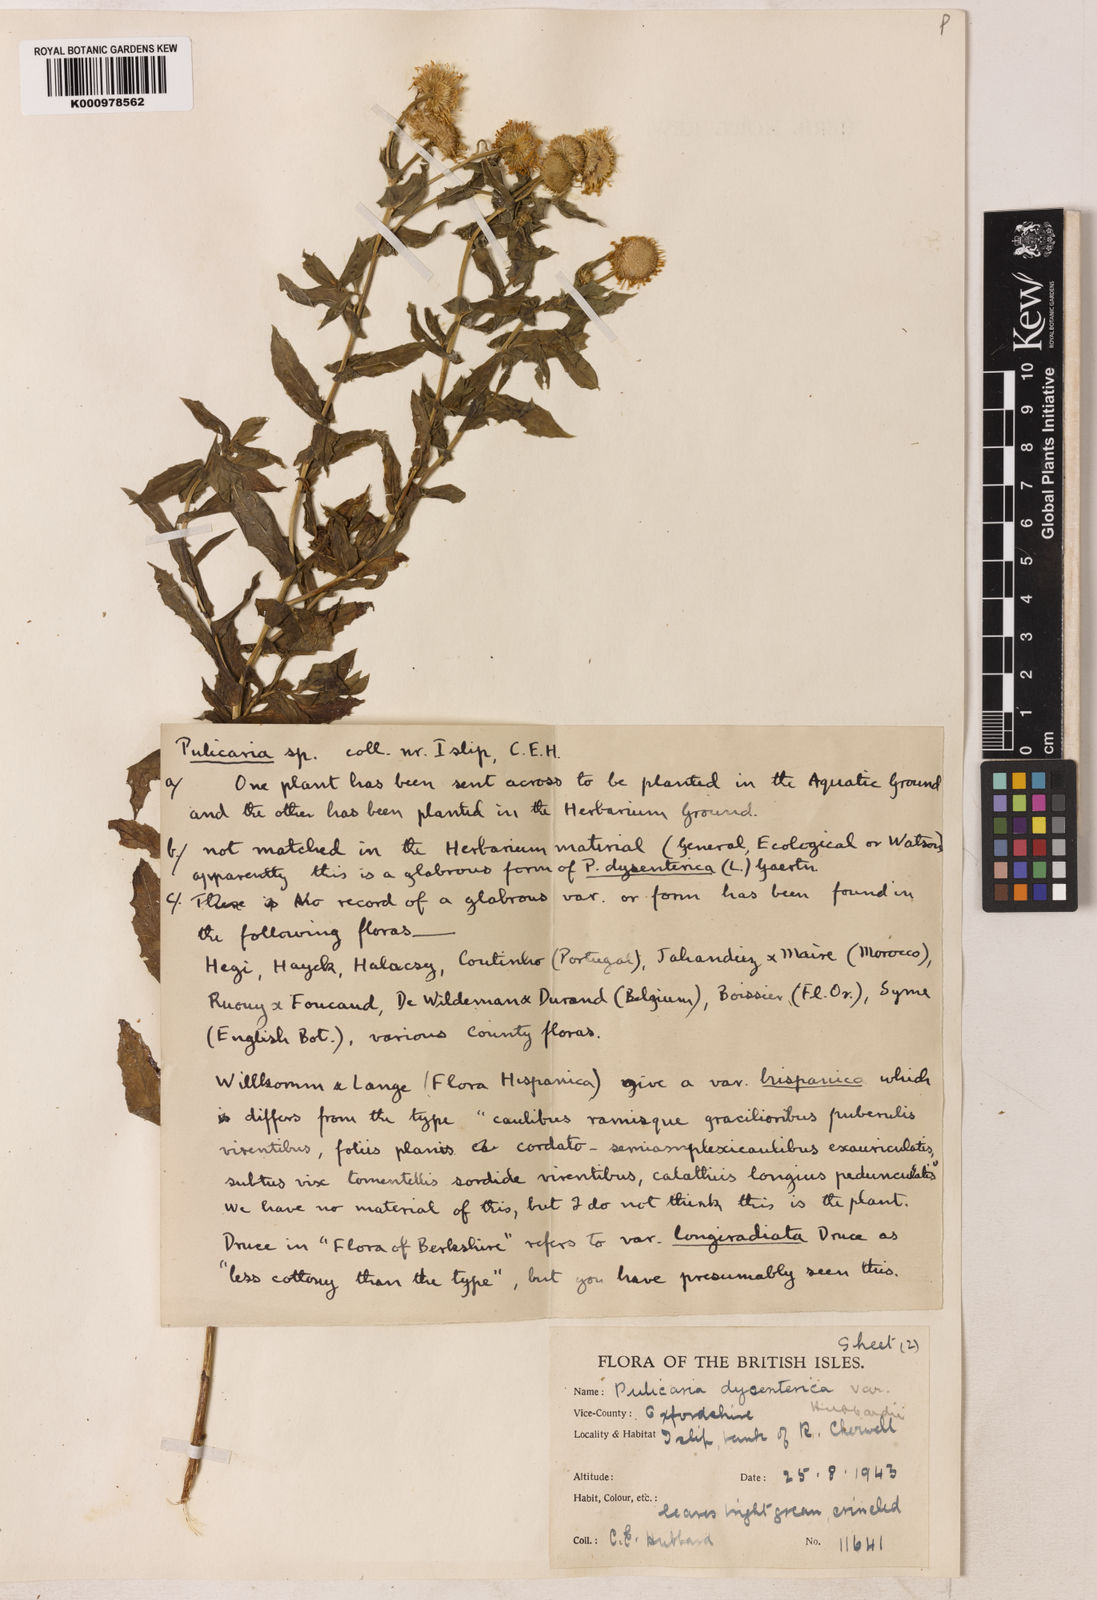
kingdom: Plantae
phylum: Tracheophyta
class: Magnoliopsida
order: Asterales
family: Asteraceae
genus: Pulicaria
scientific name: Pulicaria
